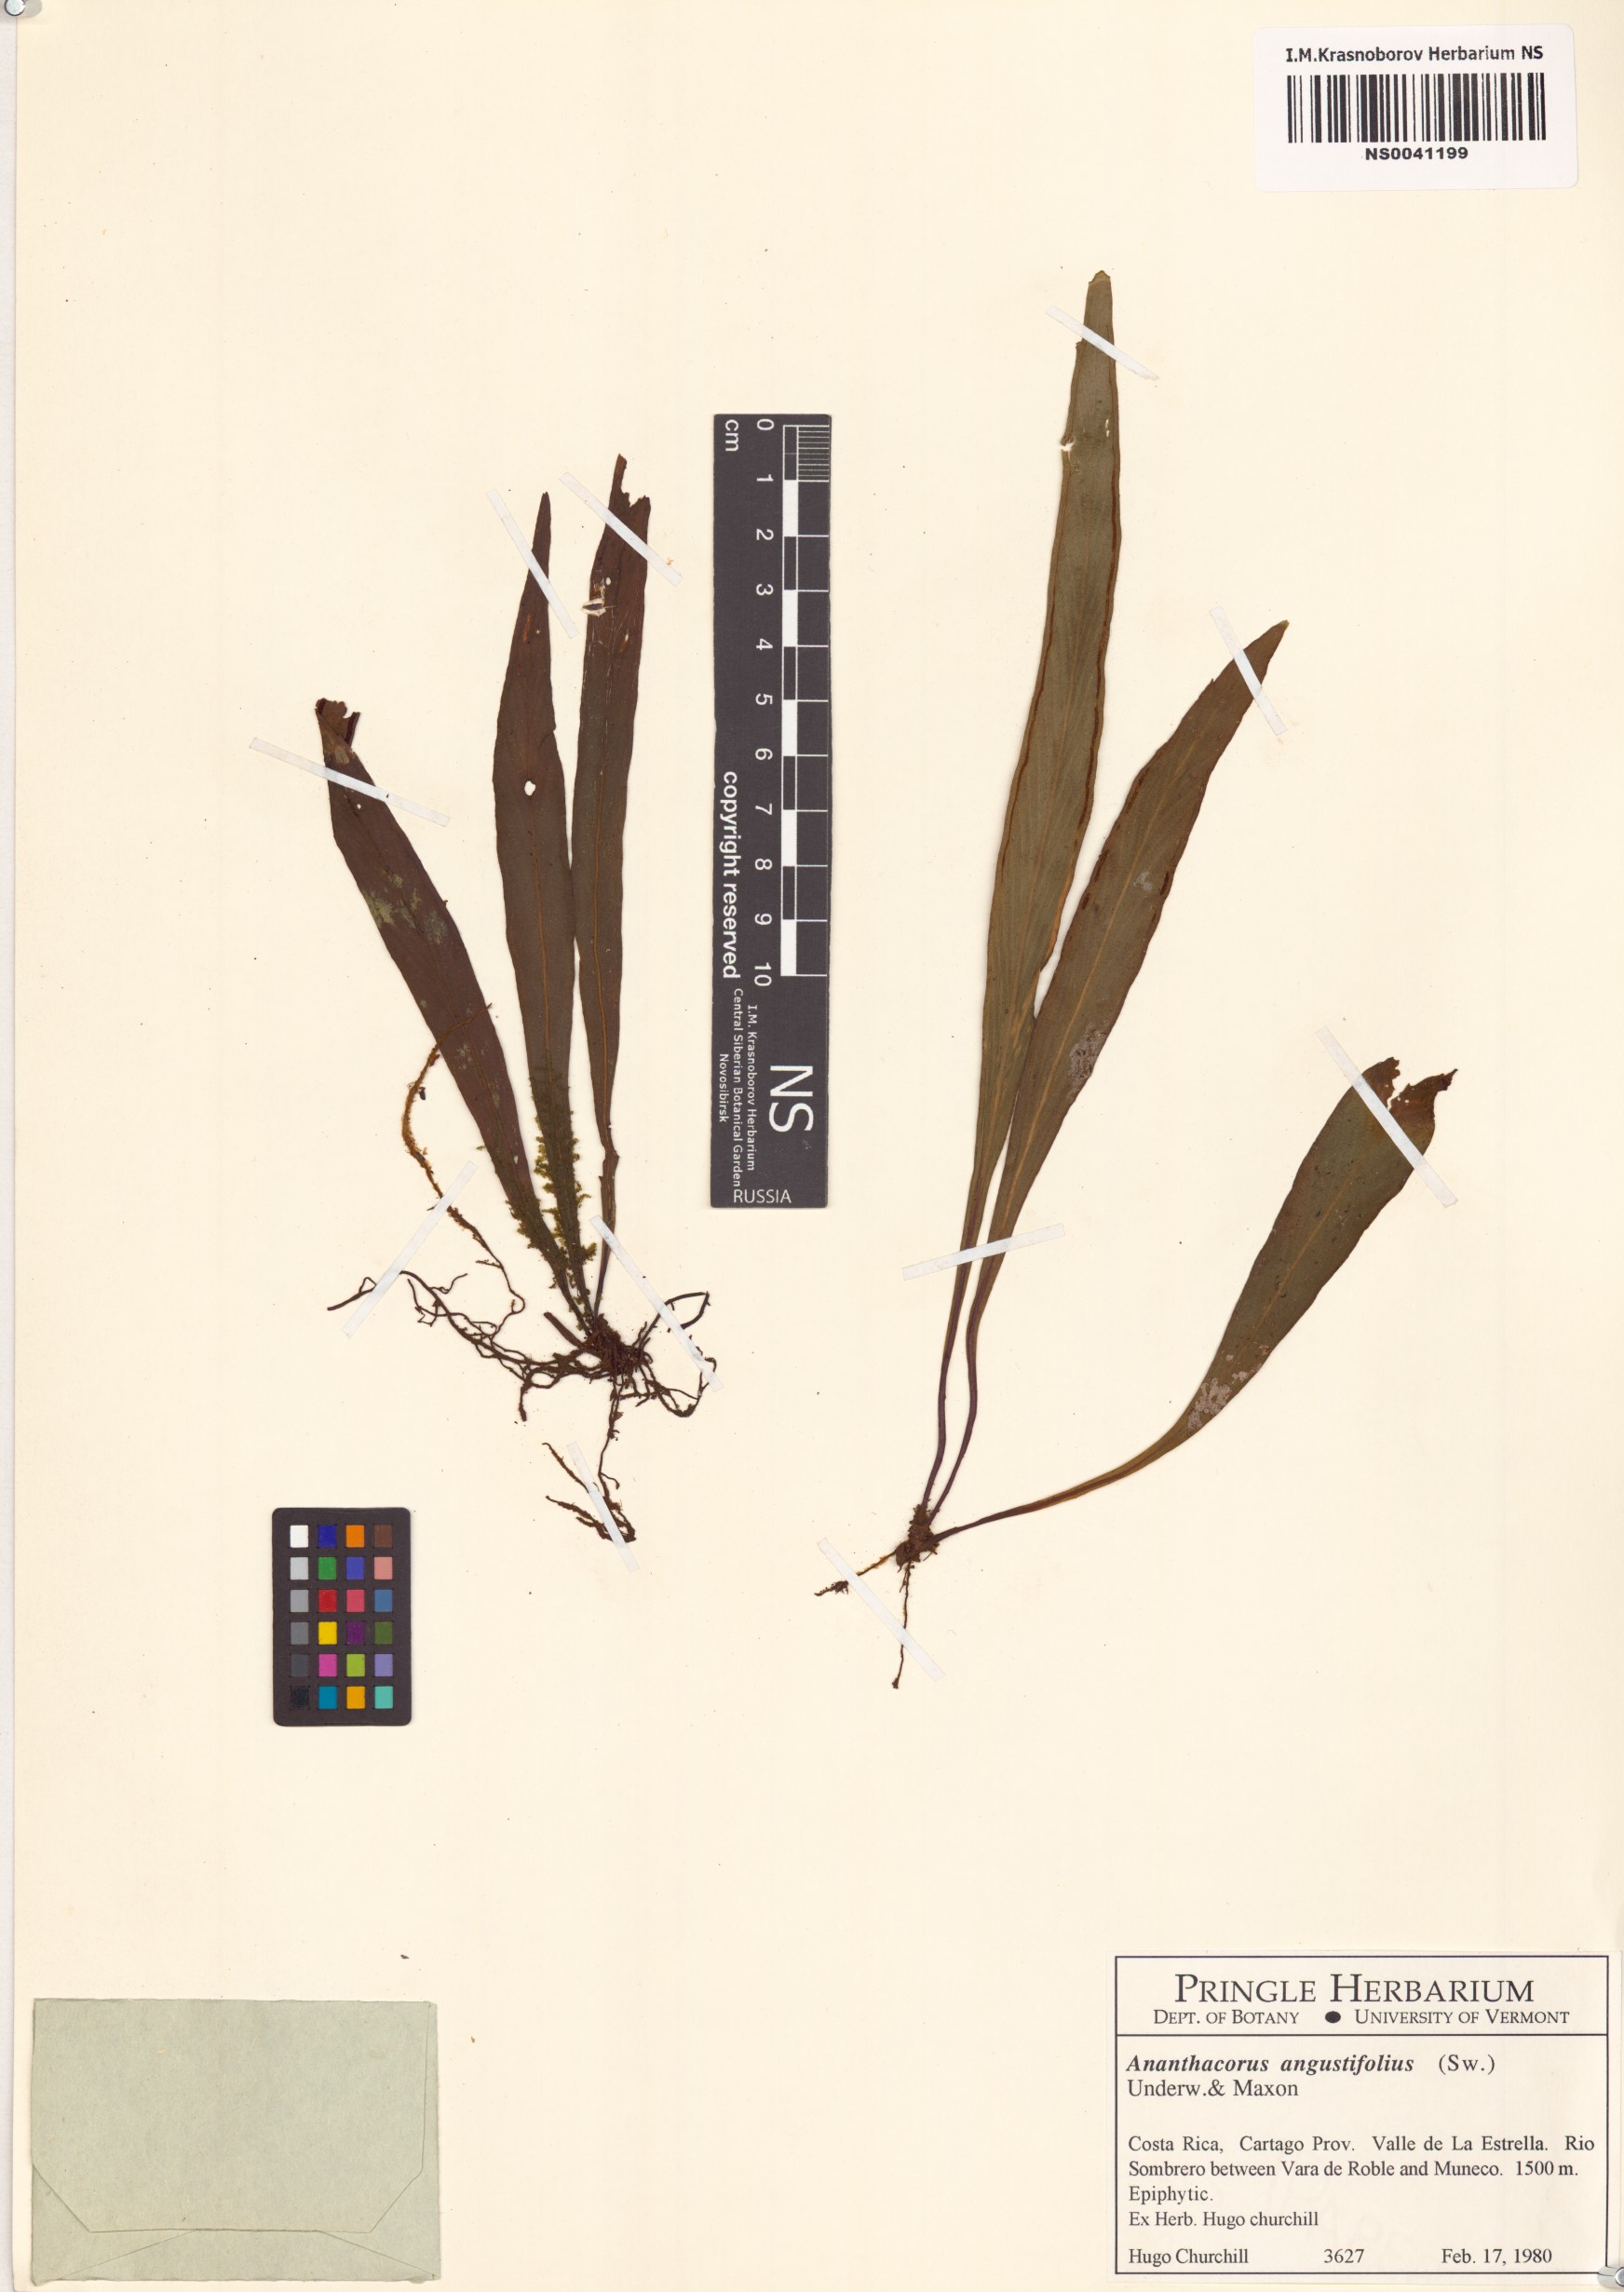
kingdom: Plantae
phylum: Tracheophyta
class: Polypodiopsida
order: Polypodiales
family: Pteridaceae
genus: Ananthacorus
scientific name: Ananthacorus angustifolius
